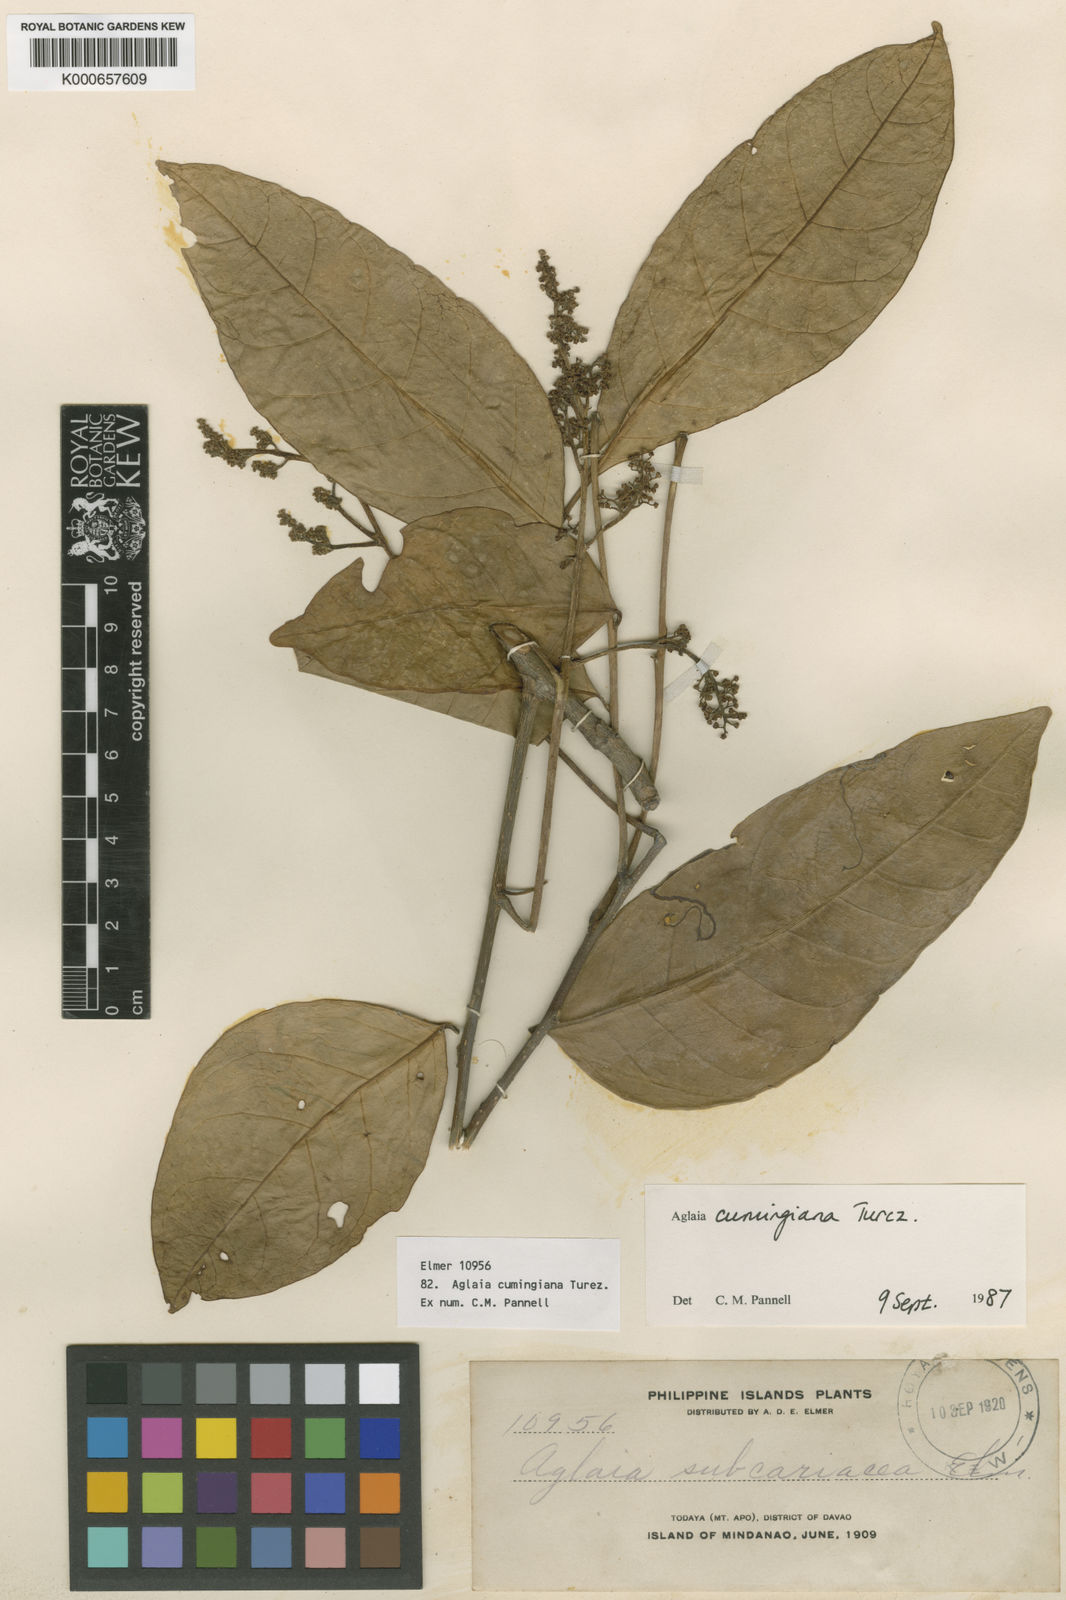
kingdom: Plantae
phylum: Tracheophyta
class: Magnoliopsida
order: Sapindales
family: Meliaceae
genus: Aglaia
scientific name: Aglaia cumingiana
